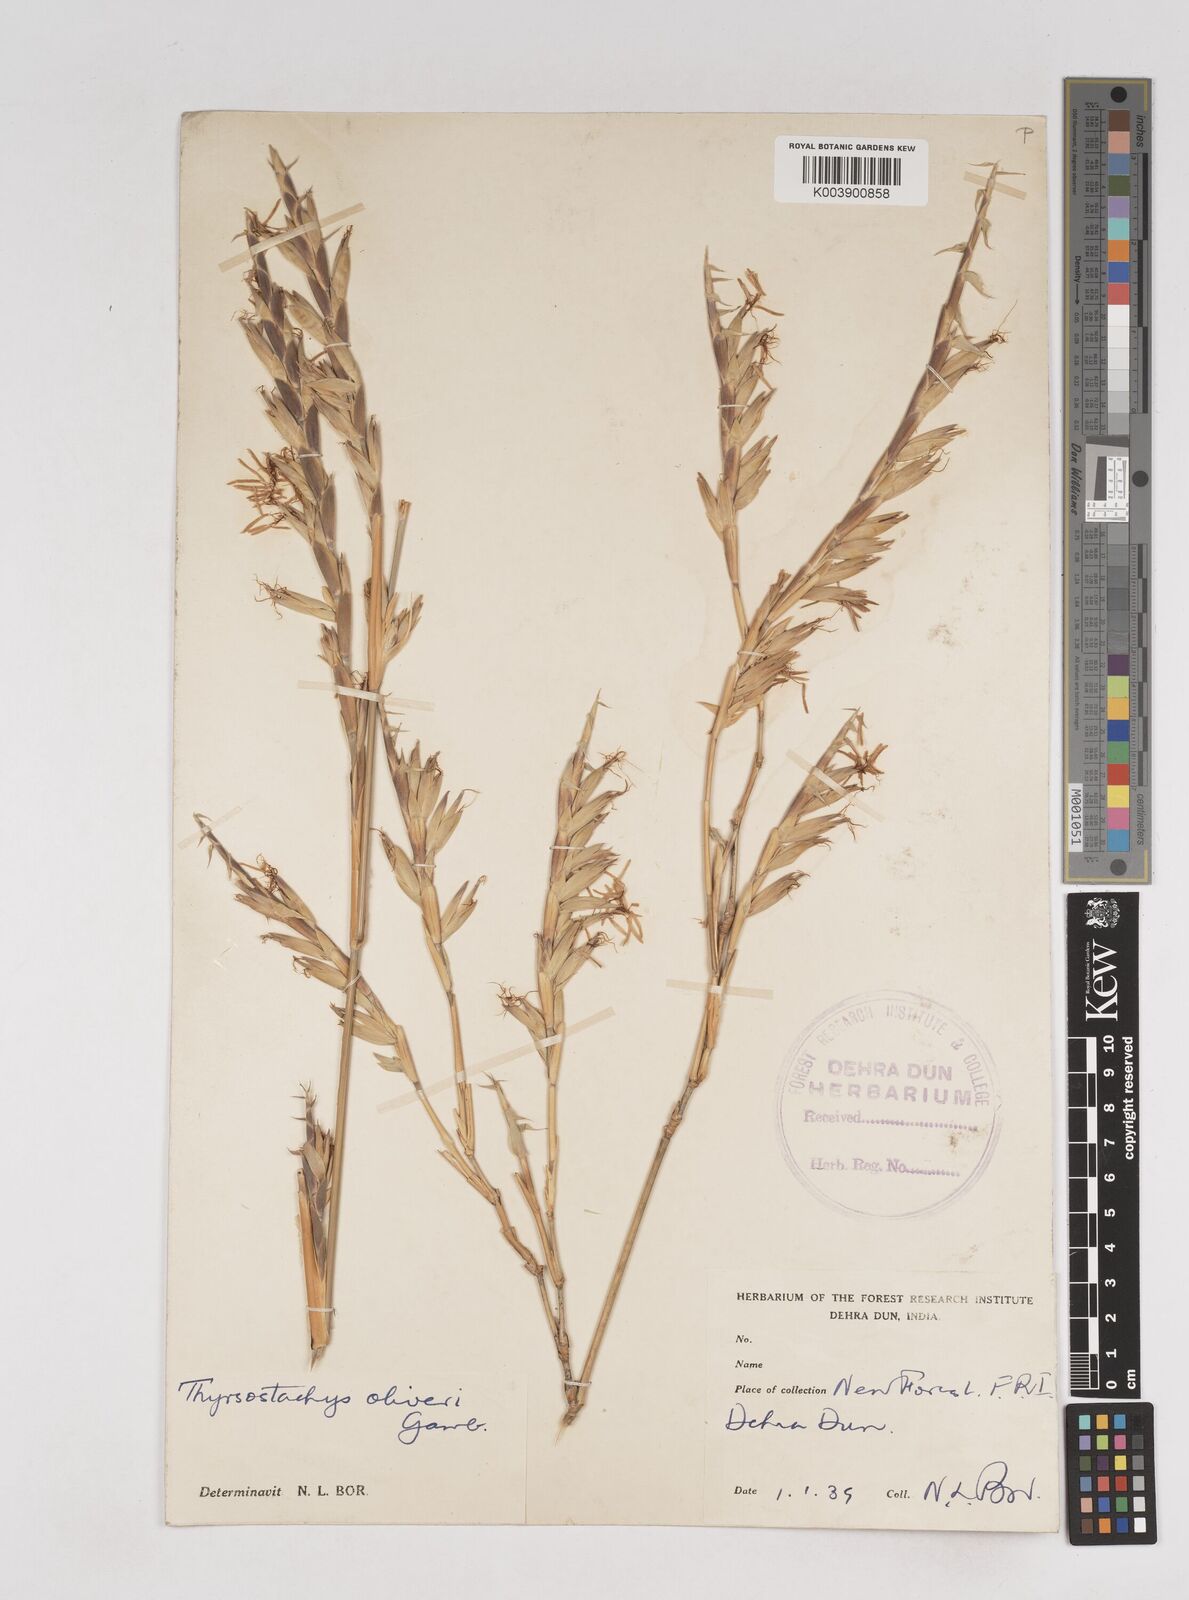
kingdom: Plantae
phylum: Tracheophyta
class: Liliopsida
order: Poales
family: Poaceae
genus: Thyrsostachys
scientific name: Thyrsostachys oliveri
